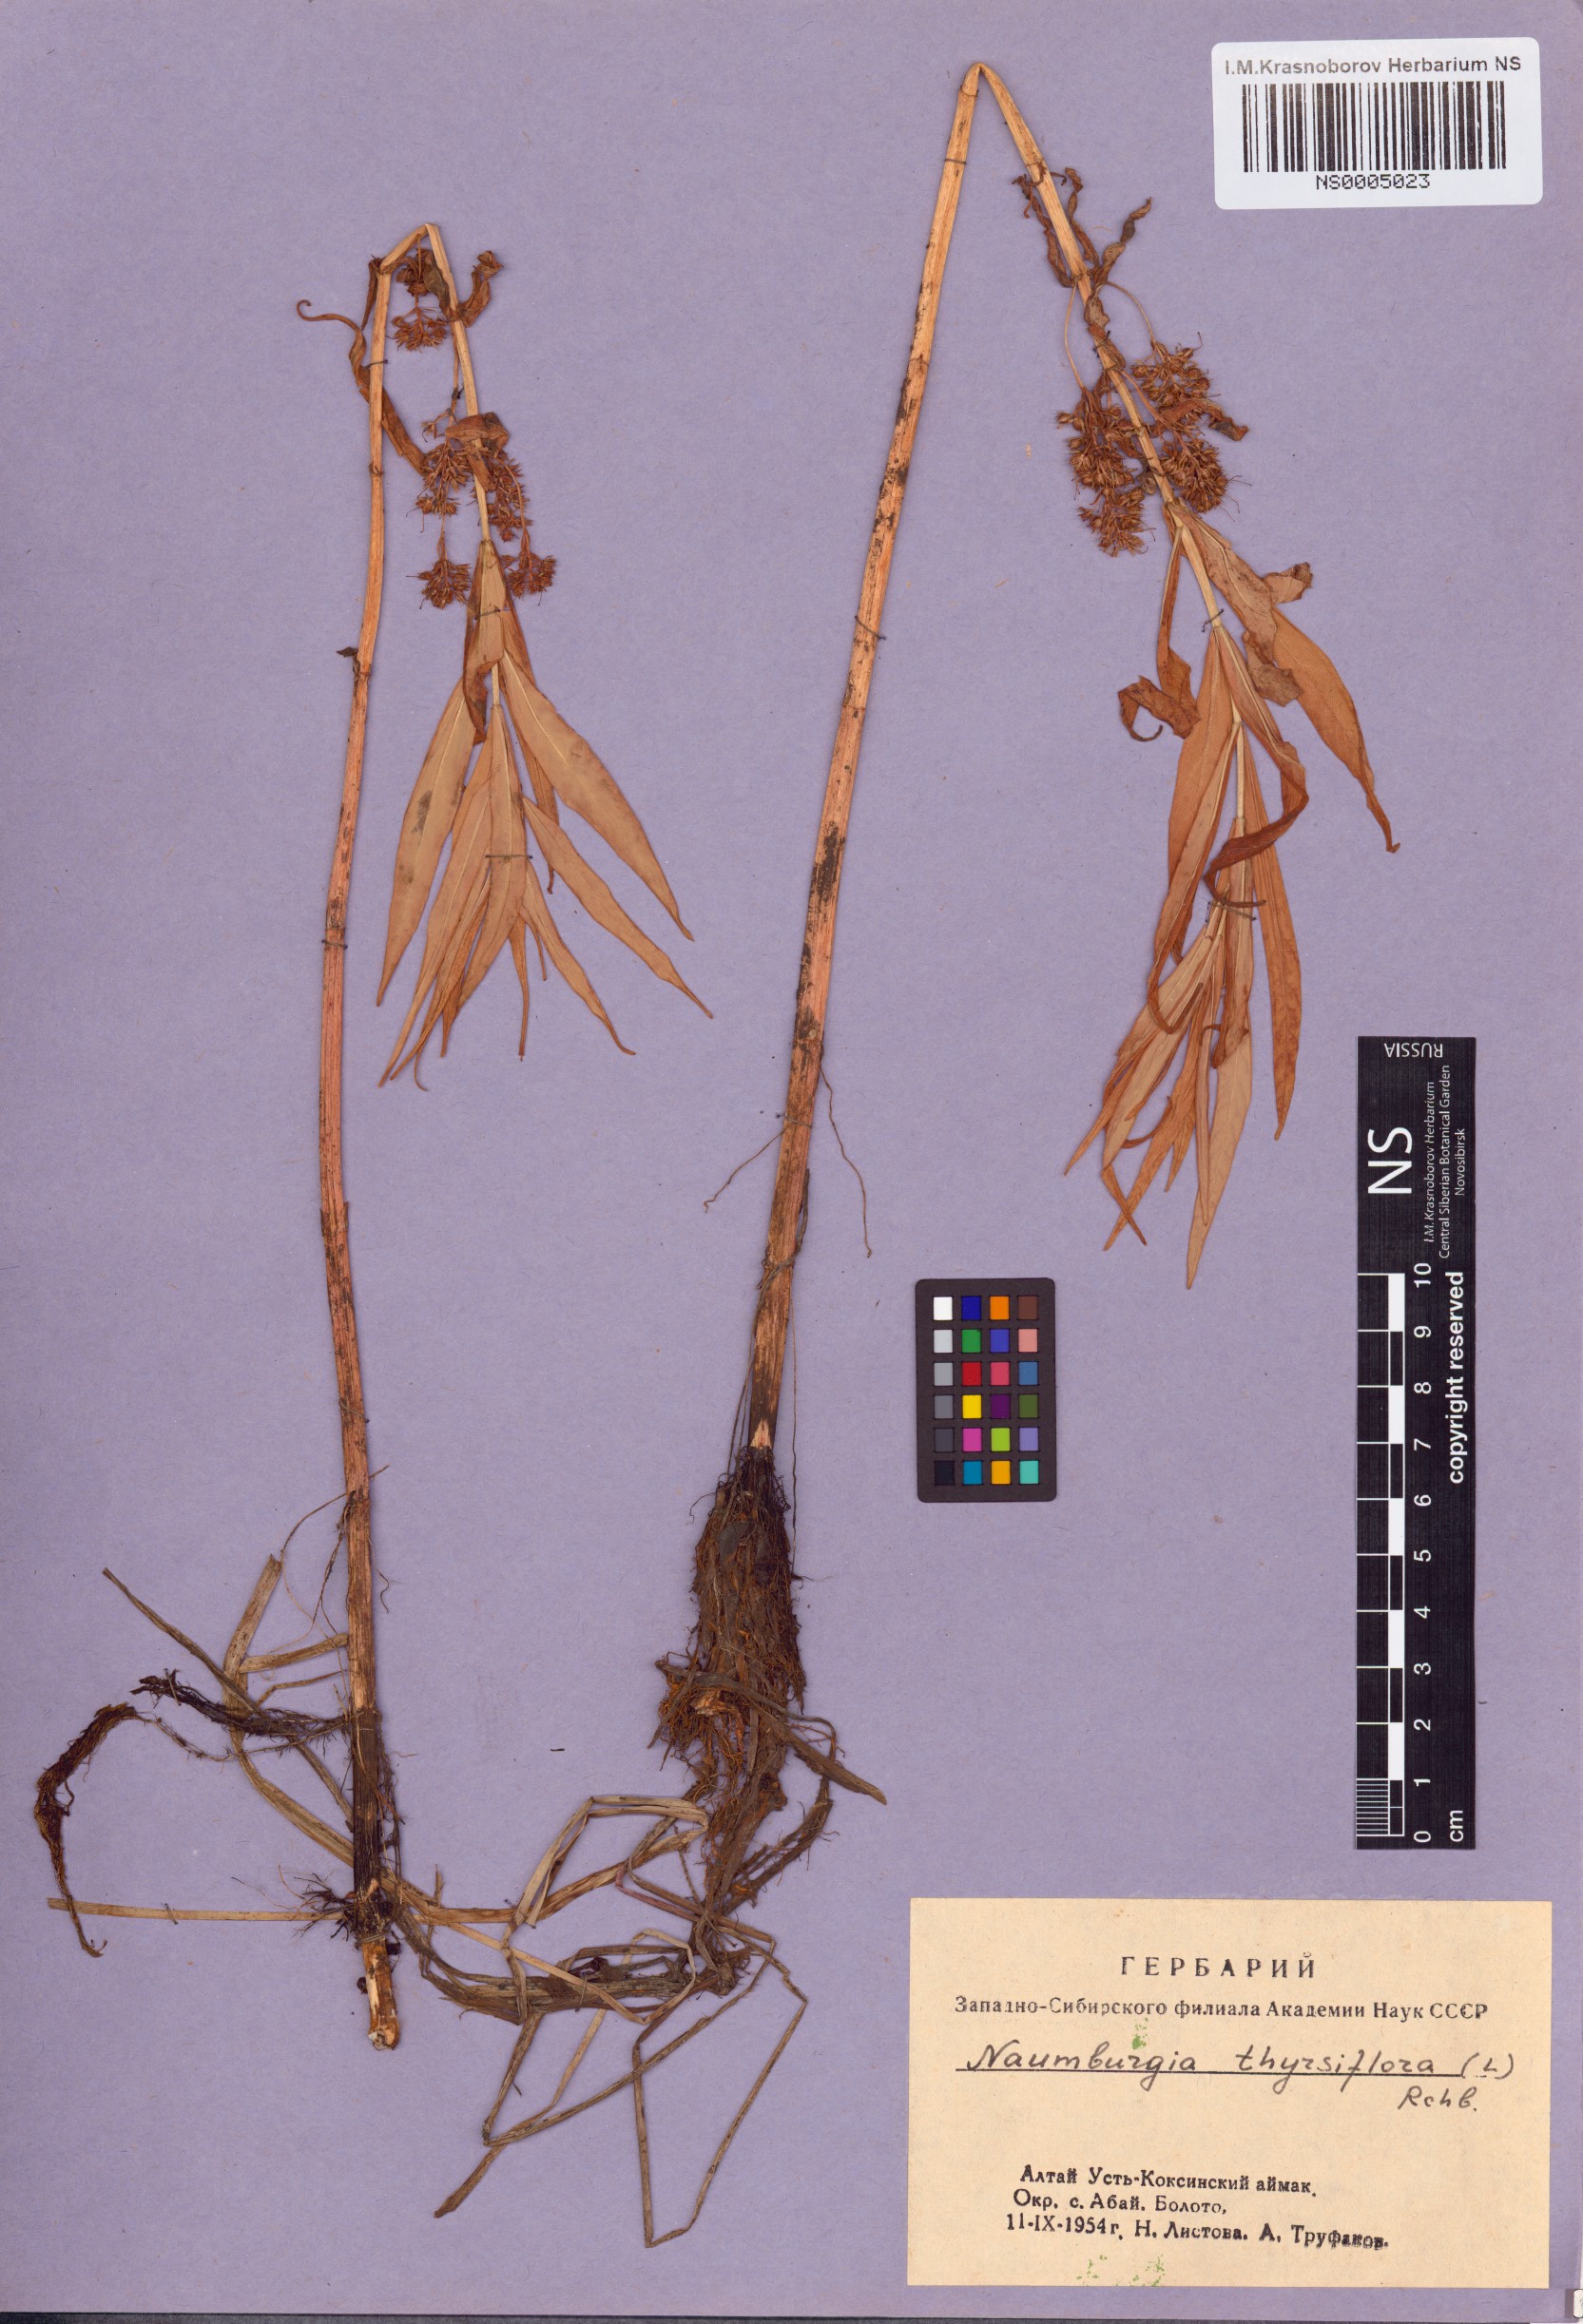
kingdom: Plantae
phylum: Tracheophyta
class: Magnoliopsida
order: Ericales
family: Primulaceae
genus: Lysimachia
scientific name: Lysimachia thyrsiflora
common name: Tufted loosestrife
